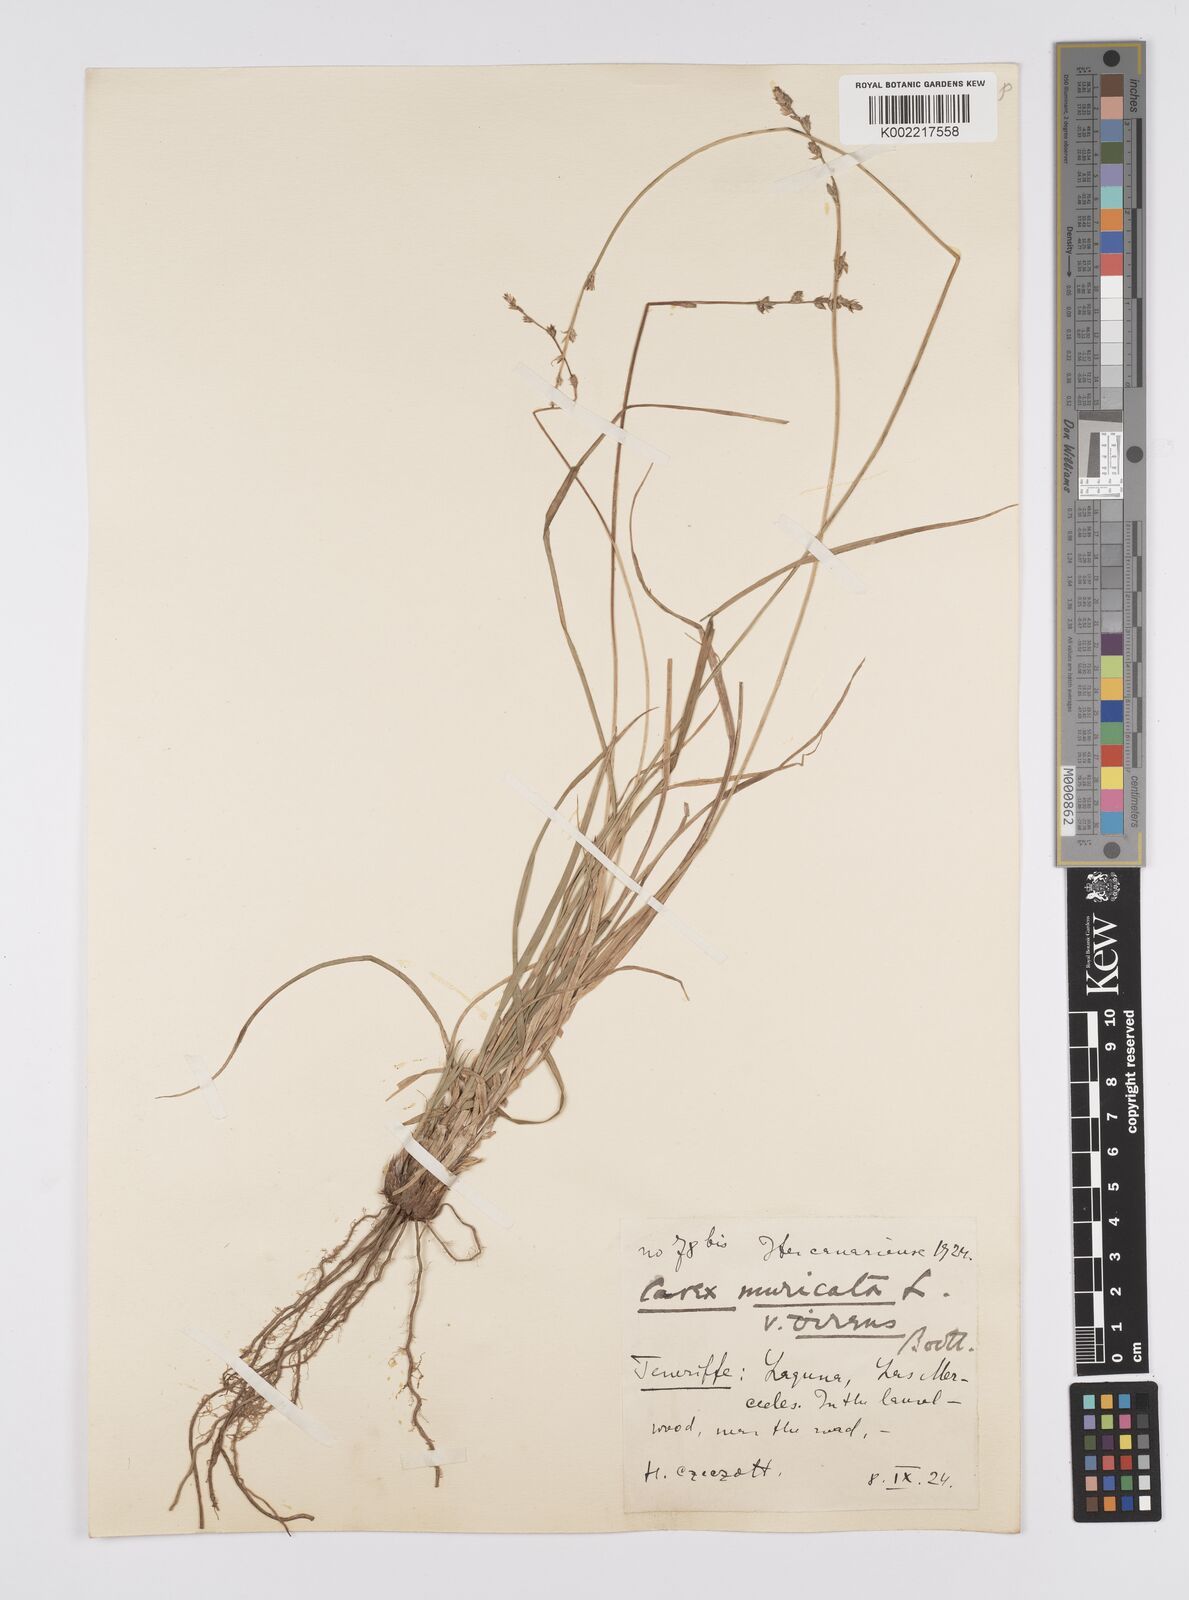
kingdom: Plantae
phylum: Tracheophyta
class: Liliopsida
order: Poales
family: Cyperaceae
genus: Carex
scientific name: Carex divulsa
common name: Grassland sedge
